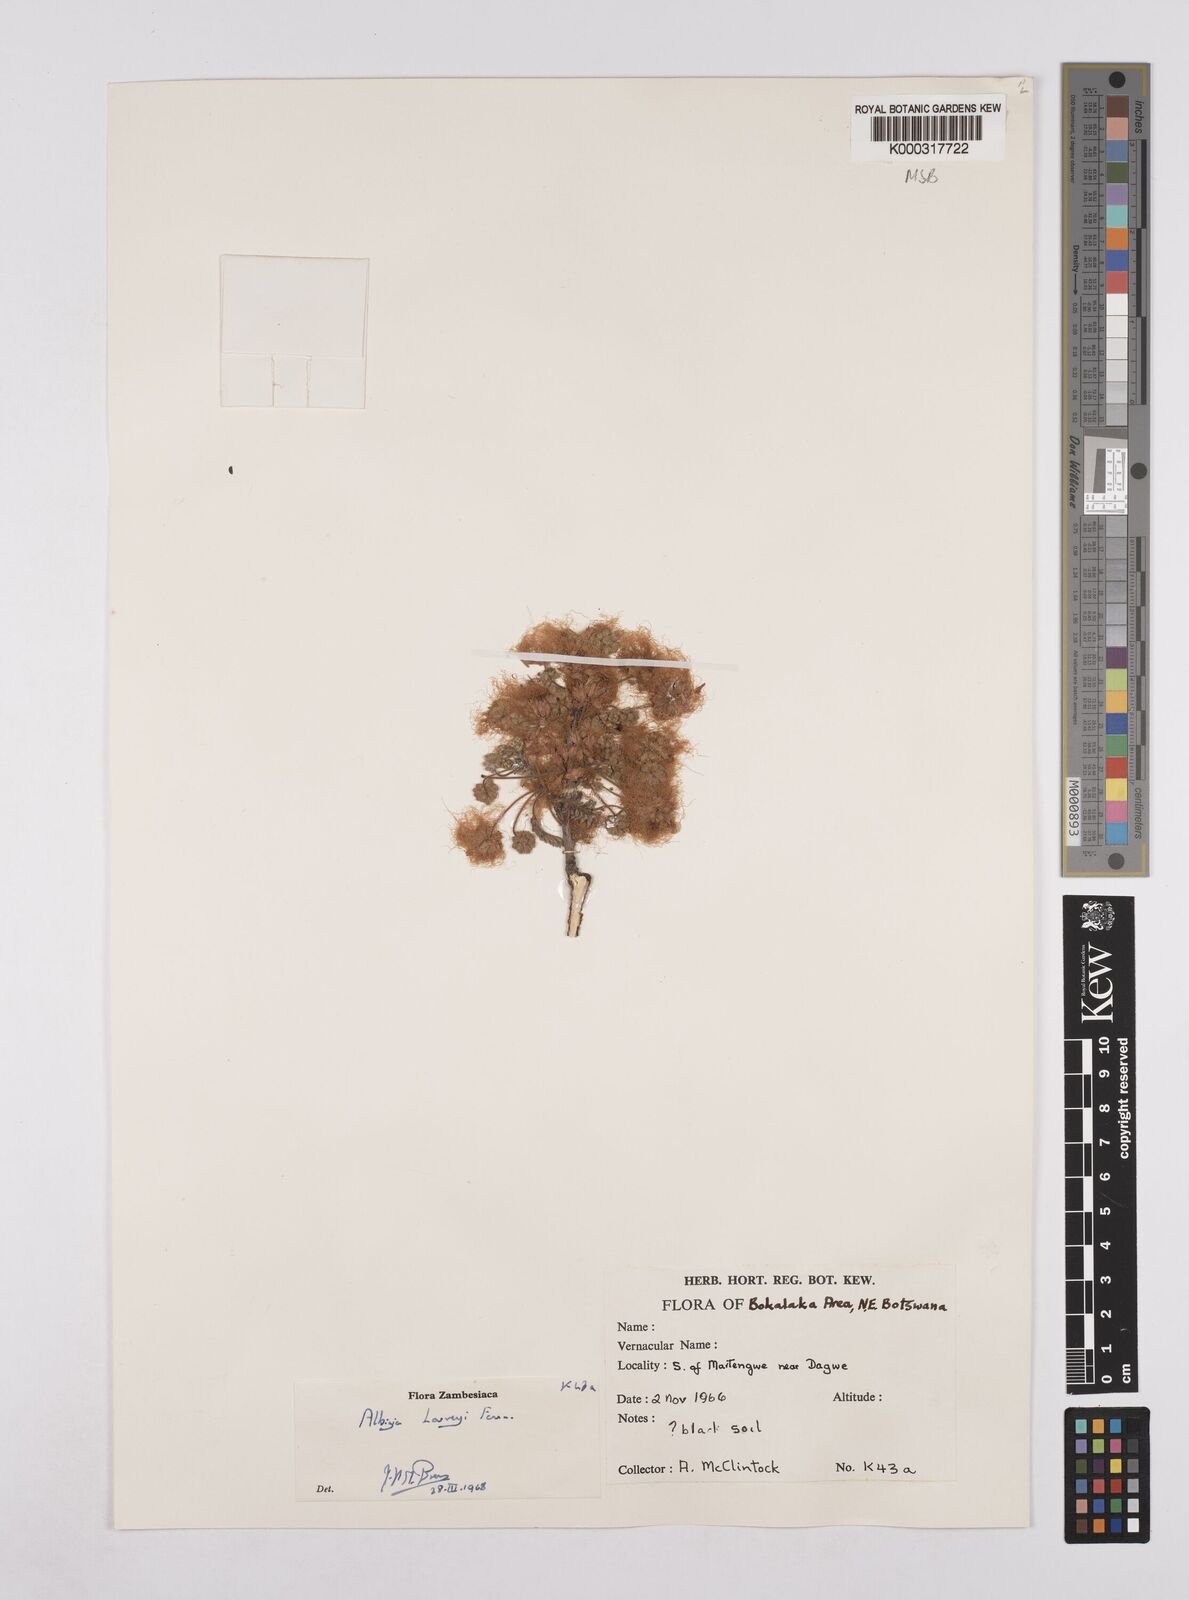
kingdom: Plantae
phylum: Tracheophyta
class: Magnoliopsida
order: Fabales
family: Fabaceae
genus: Albizia
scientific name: Albizia harveyi
